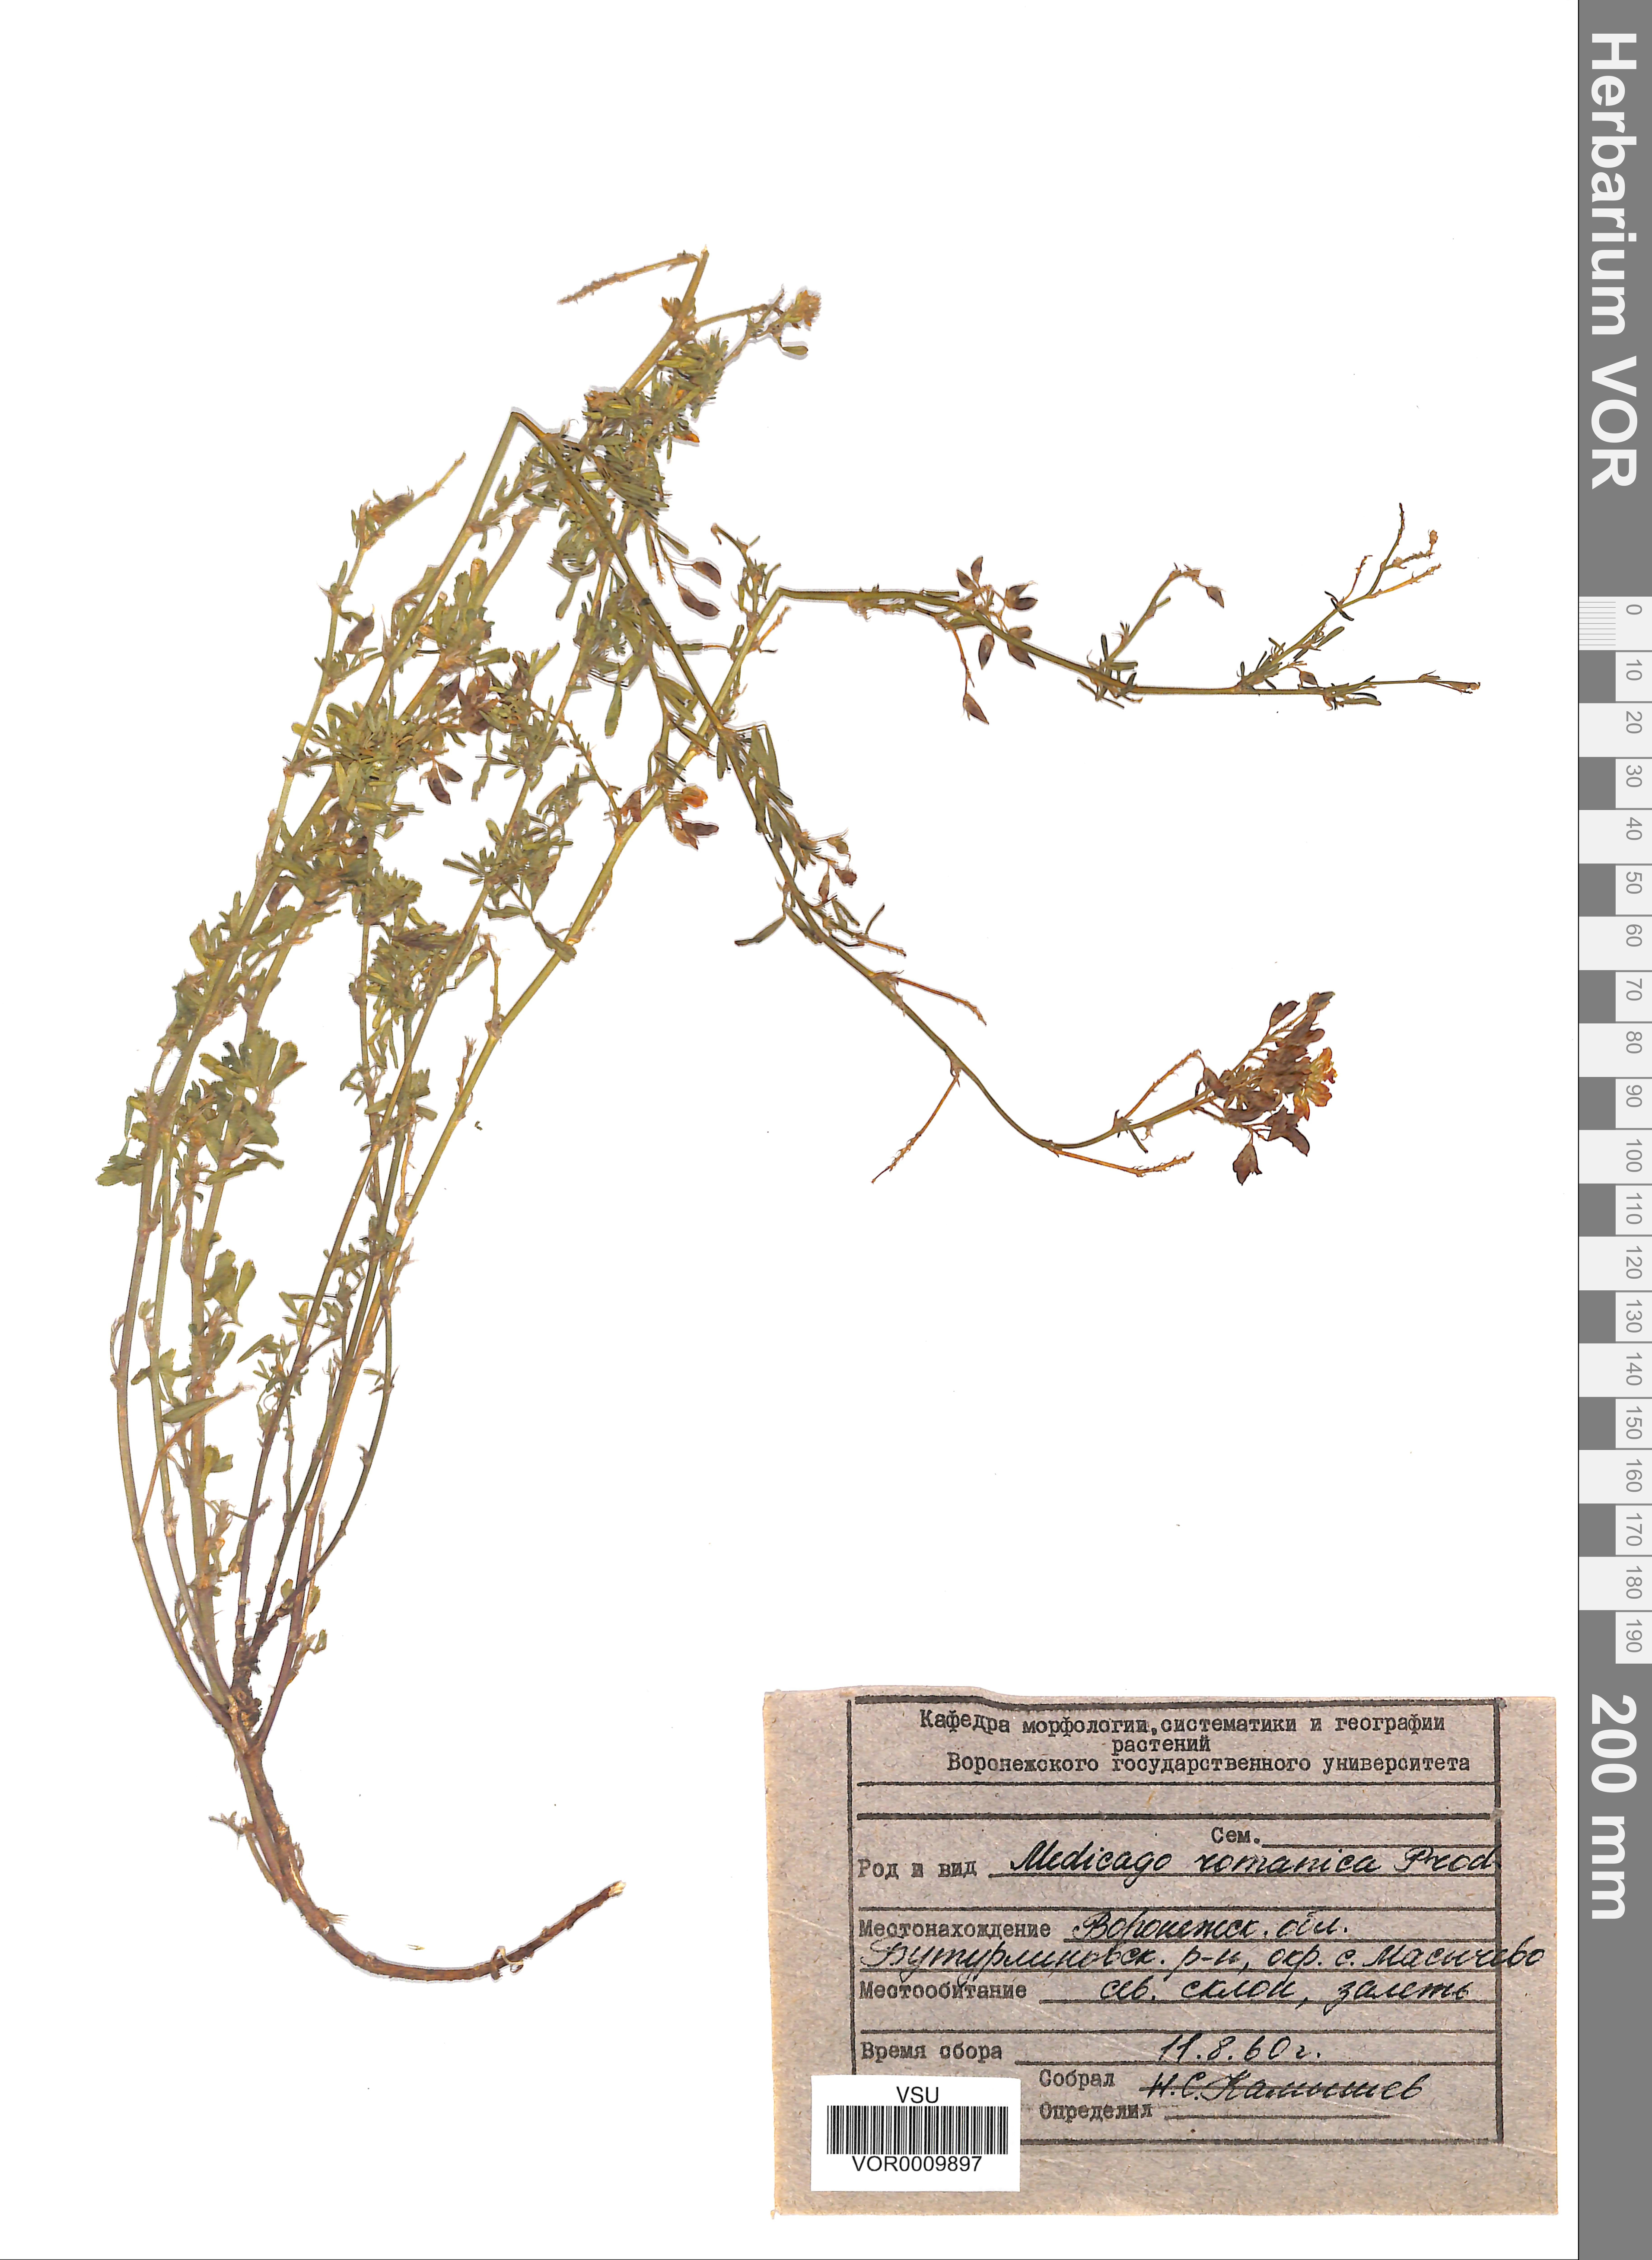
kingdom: Plantae
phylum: Tracheophyta
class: Magnoliopsida
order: Fabales
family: Fabaceae
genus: Medicago
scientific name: Medicago falcata
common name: Sickle medick
